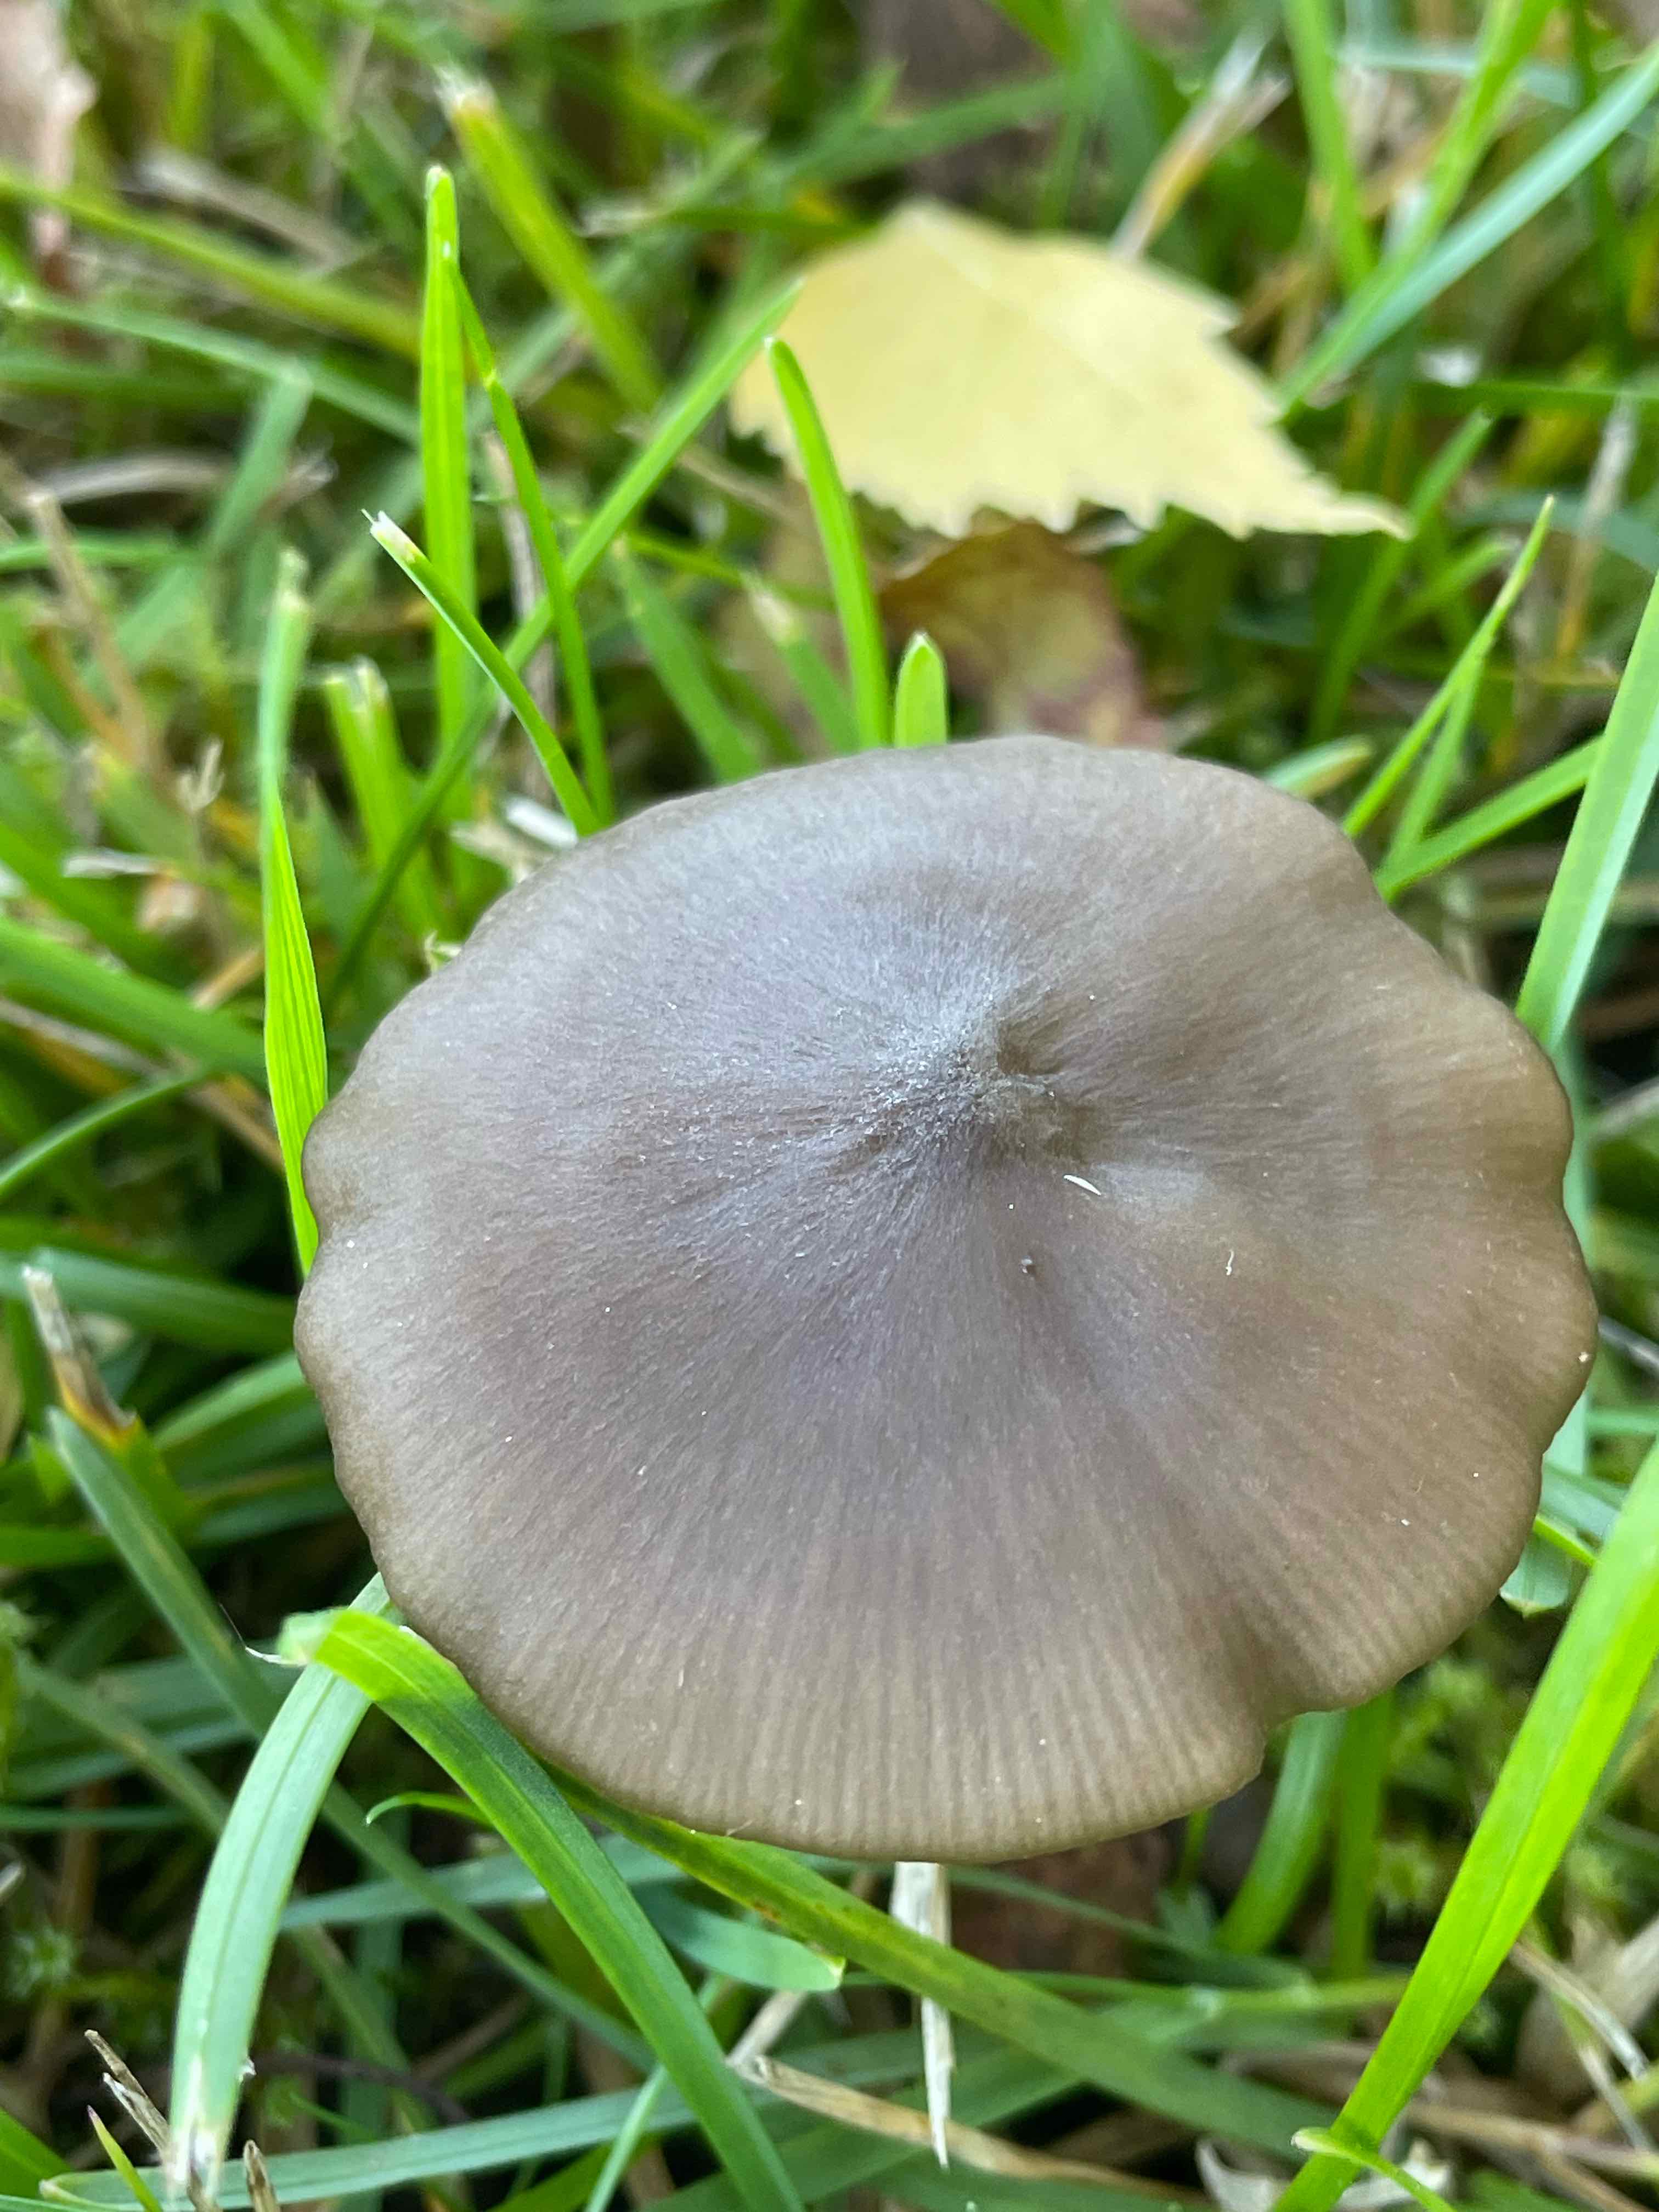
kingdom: Fungi
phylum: Basidiomycota
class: Agaricomycetes
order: Agaricales
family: Entolomataceae
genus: Entoloma
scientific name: Entoloma
